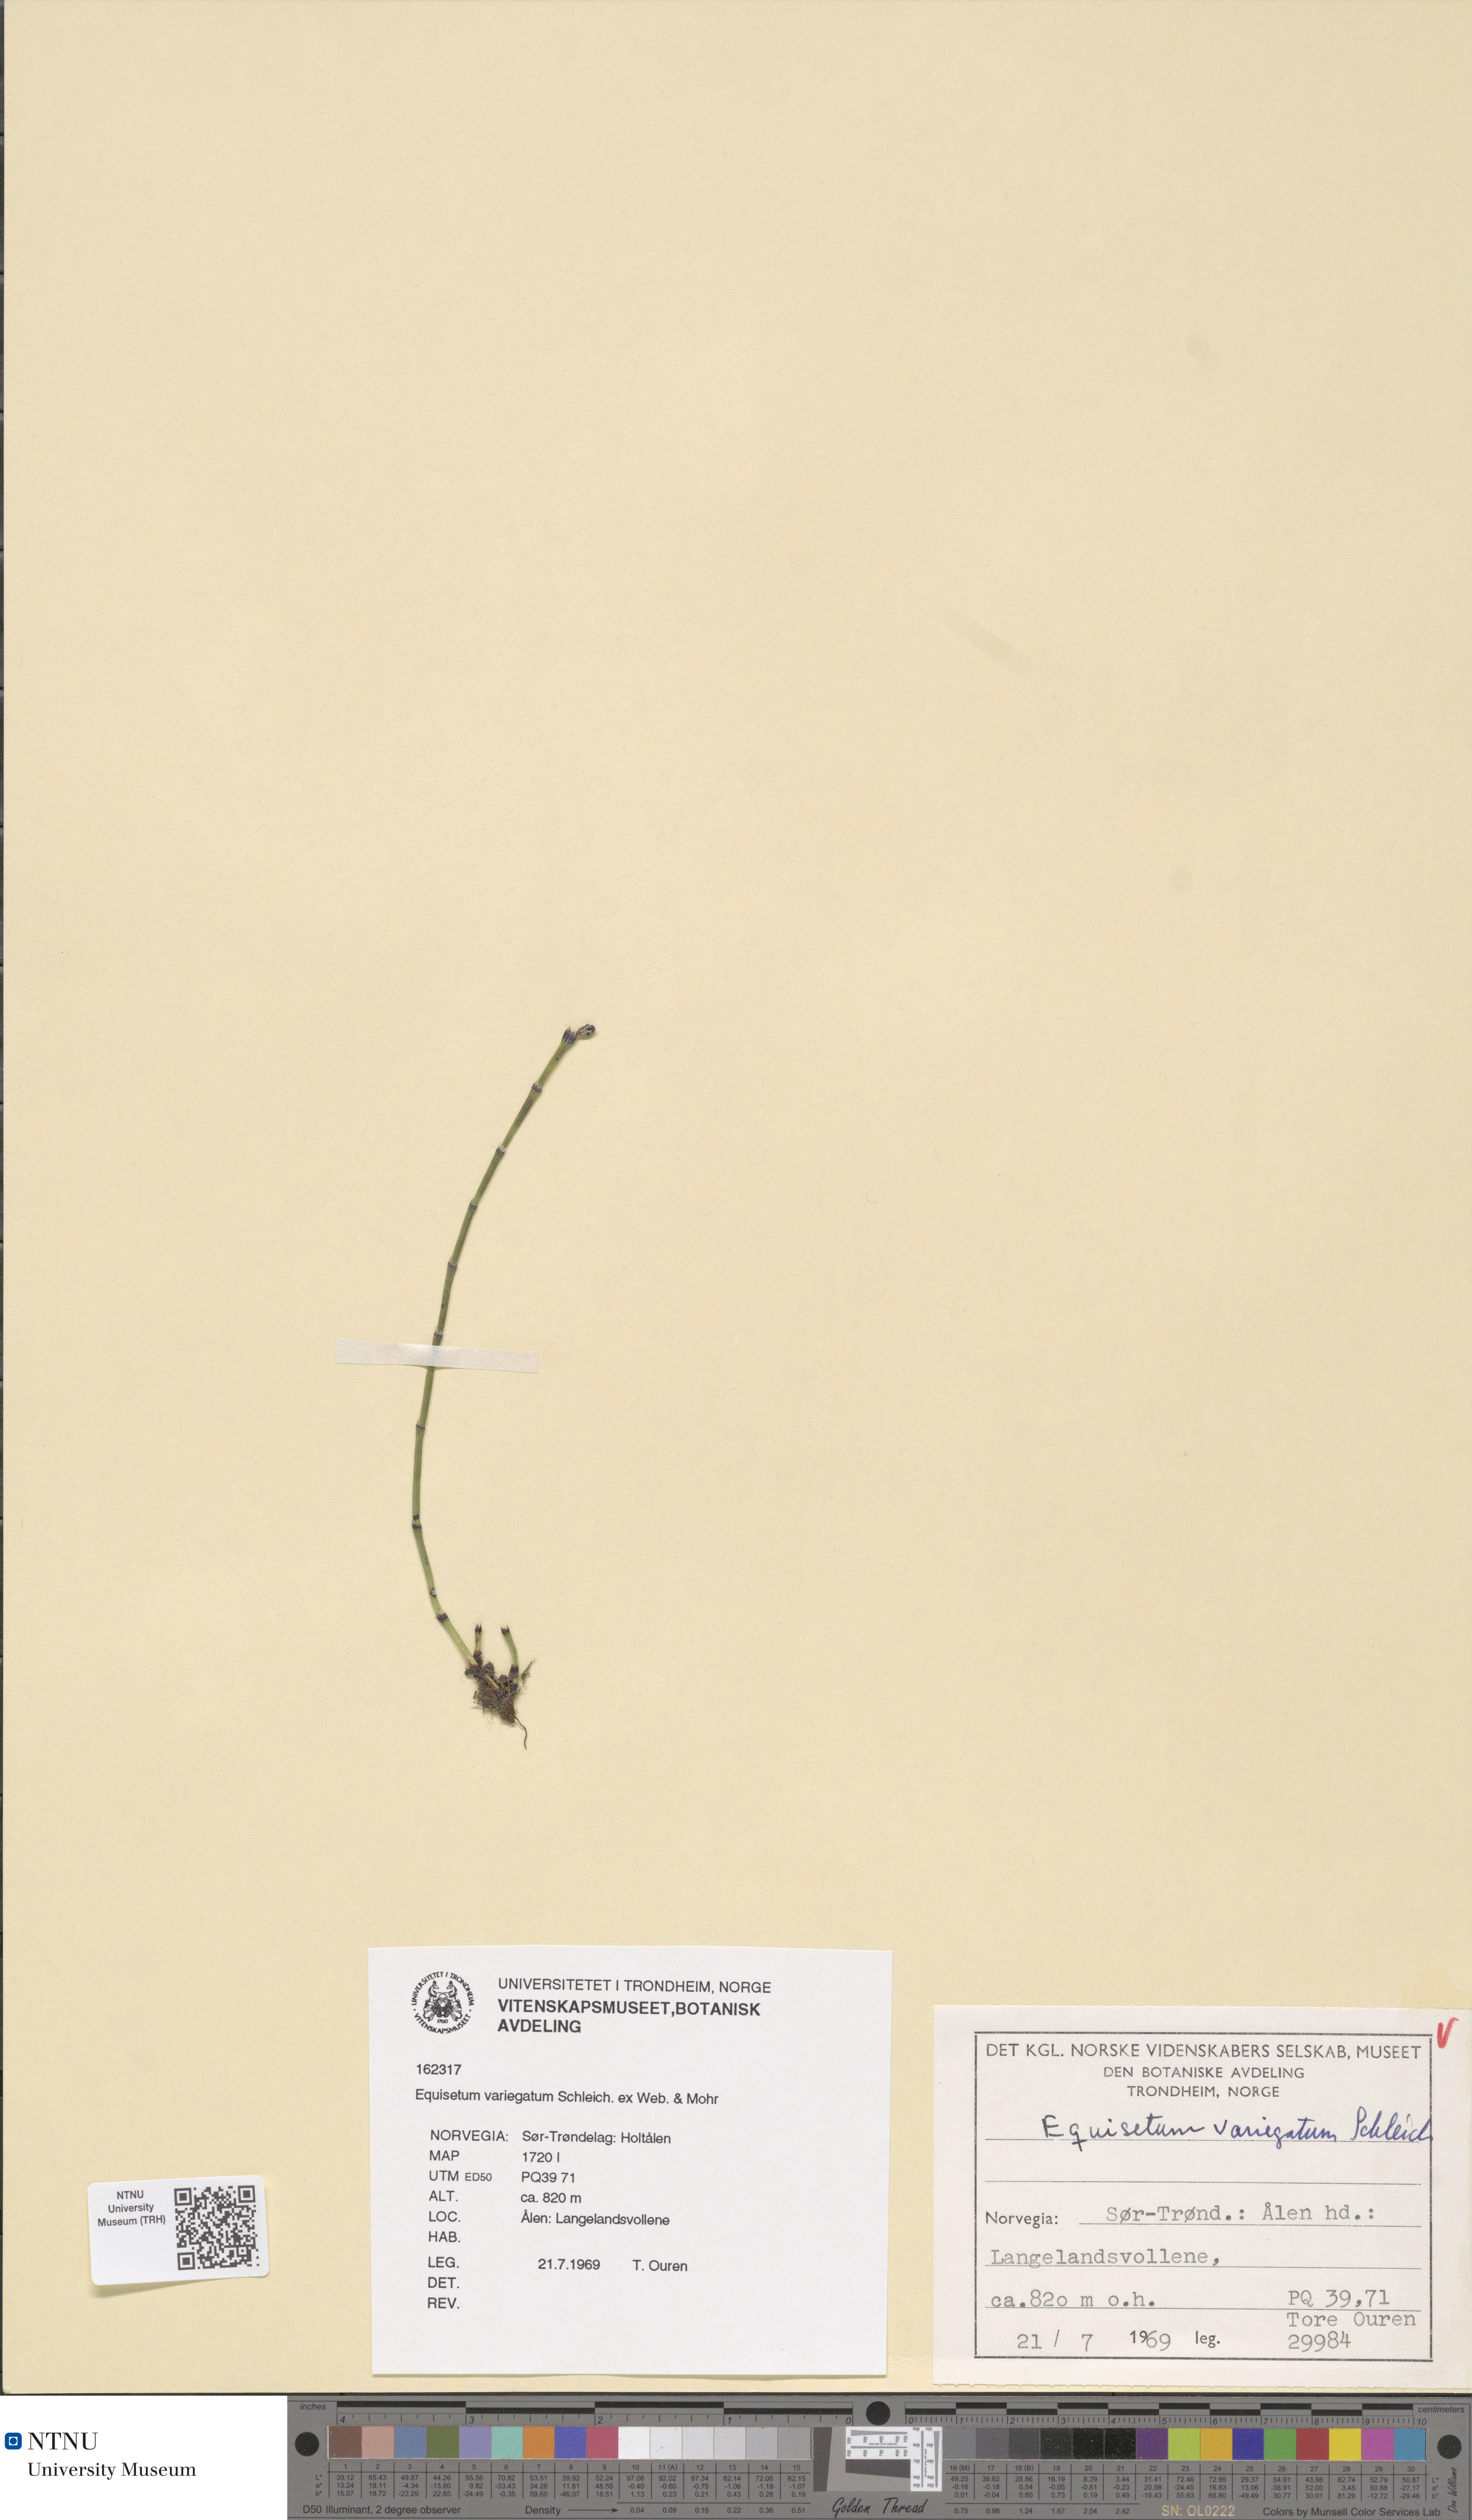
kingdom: Plantae
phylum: Tracheophyta
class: Polypodiopsida
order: Equisetales
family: Equisetaceae
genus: Equisetum
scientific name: Equisetum variegatum
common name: Variegated horsetail
